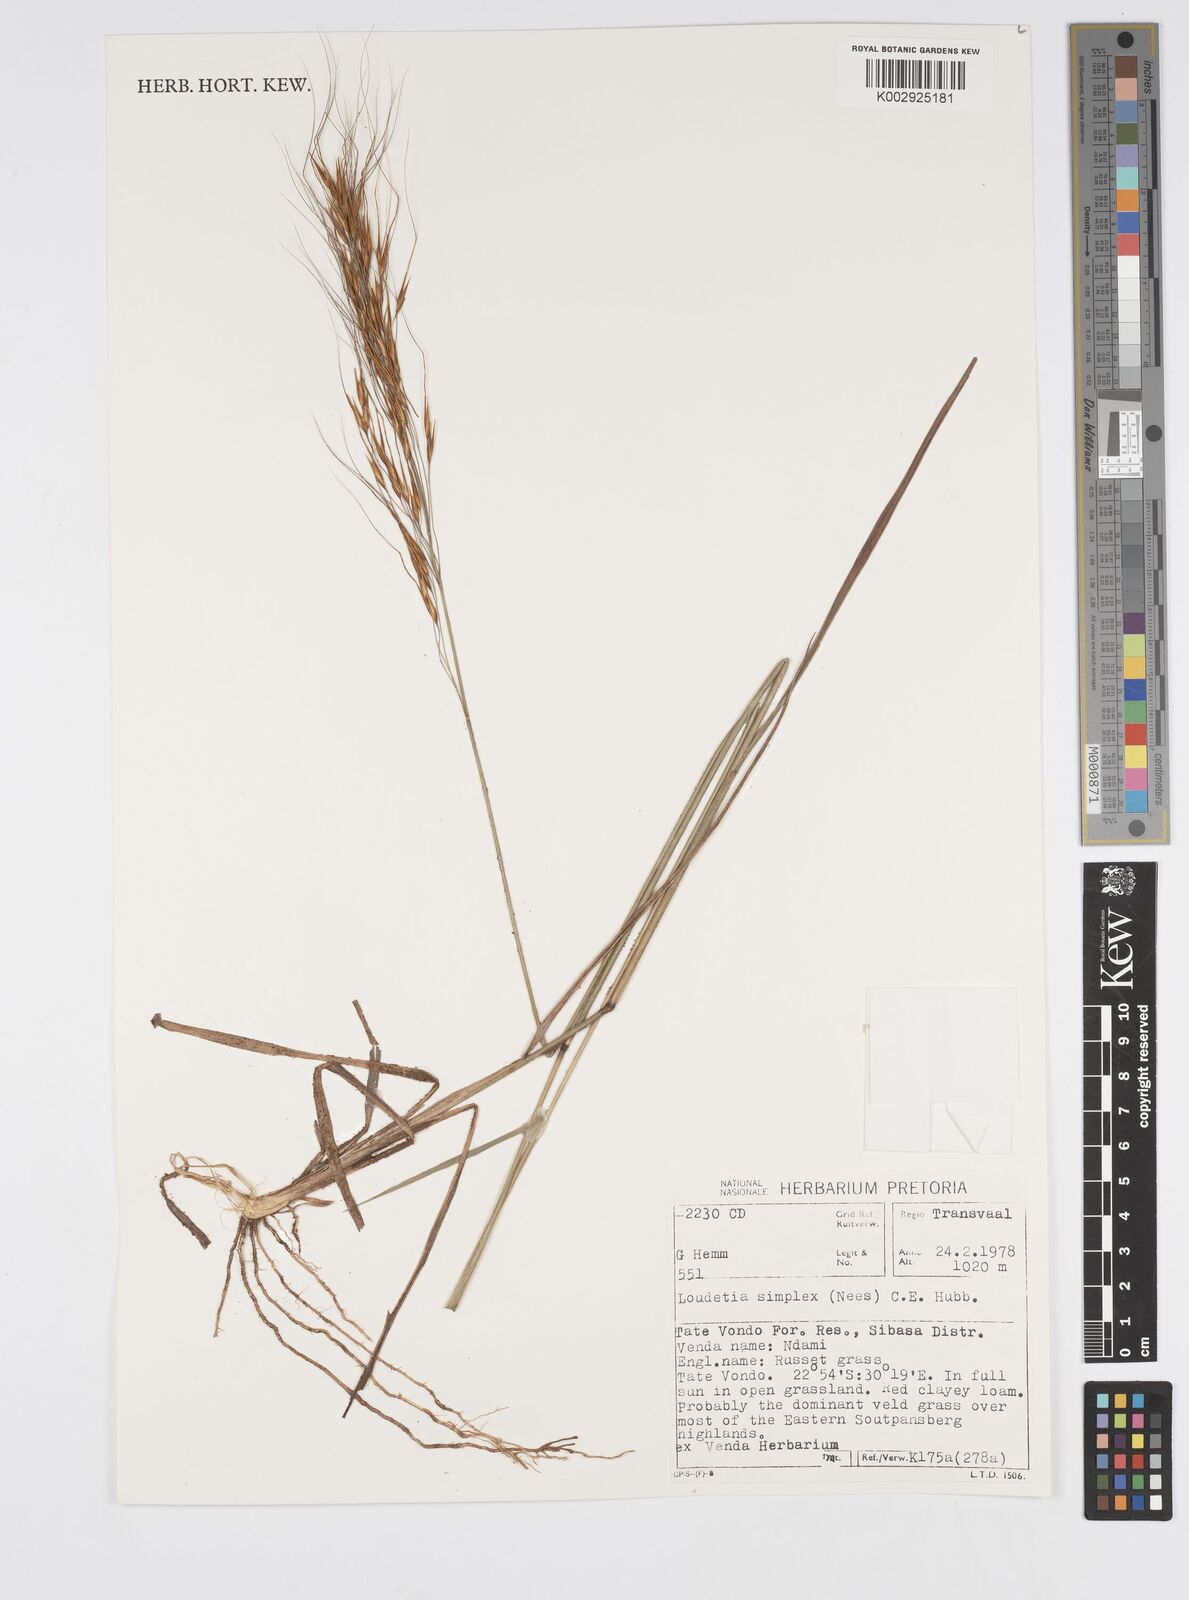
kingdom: Plantae
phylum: Tracheophyta
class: Liliopsida
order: Poales
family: Poaceae
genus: Loudetia
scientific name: Loudetia simplex
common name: Common russet grass
